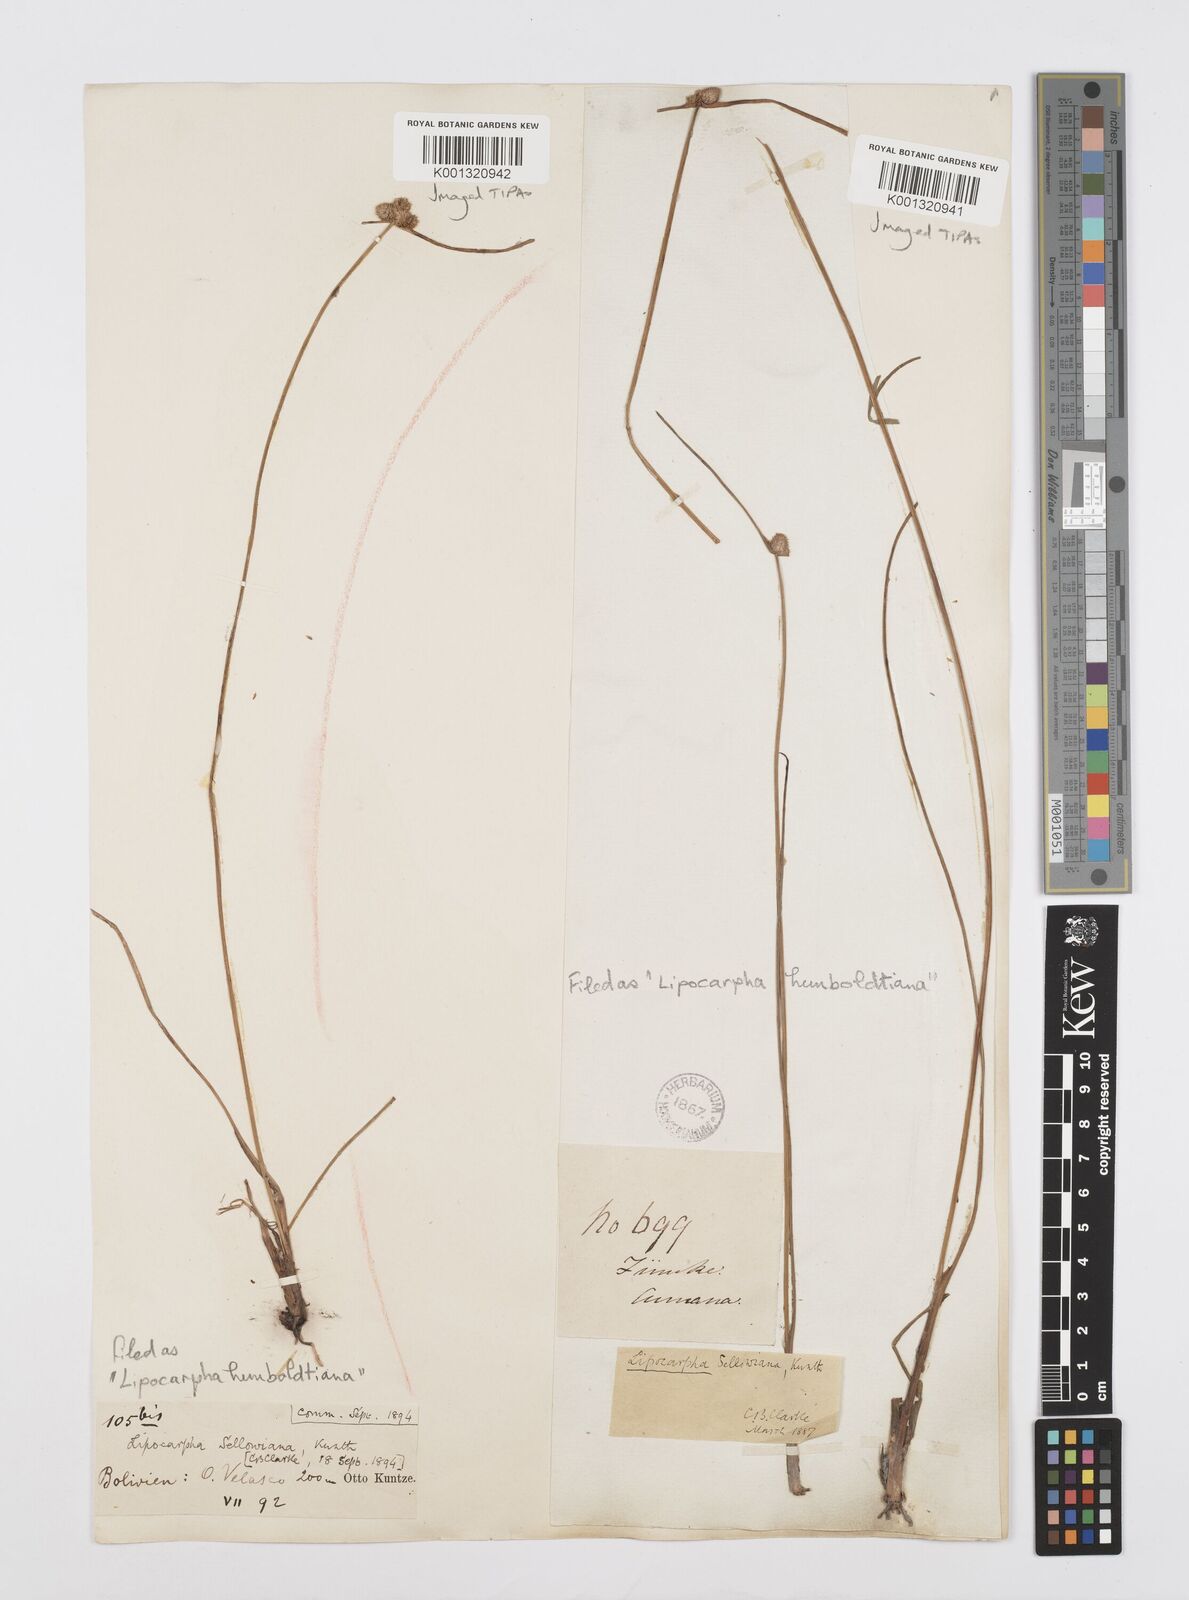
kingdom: Plantae
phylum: Tracheophyta
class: Liliopsida
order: Poales
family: Cyperaceae
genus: Cyperus
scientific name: Cyperus lanceolatus
